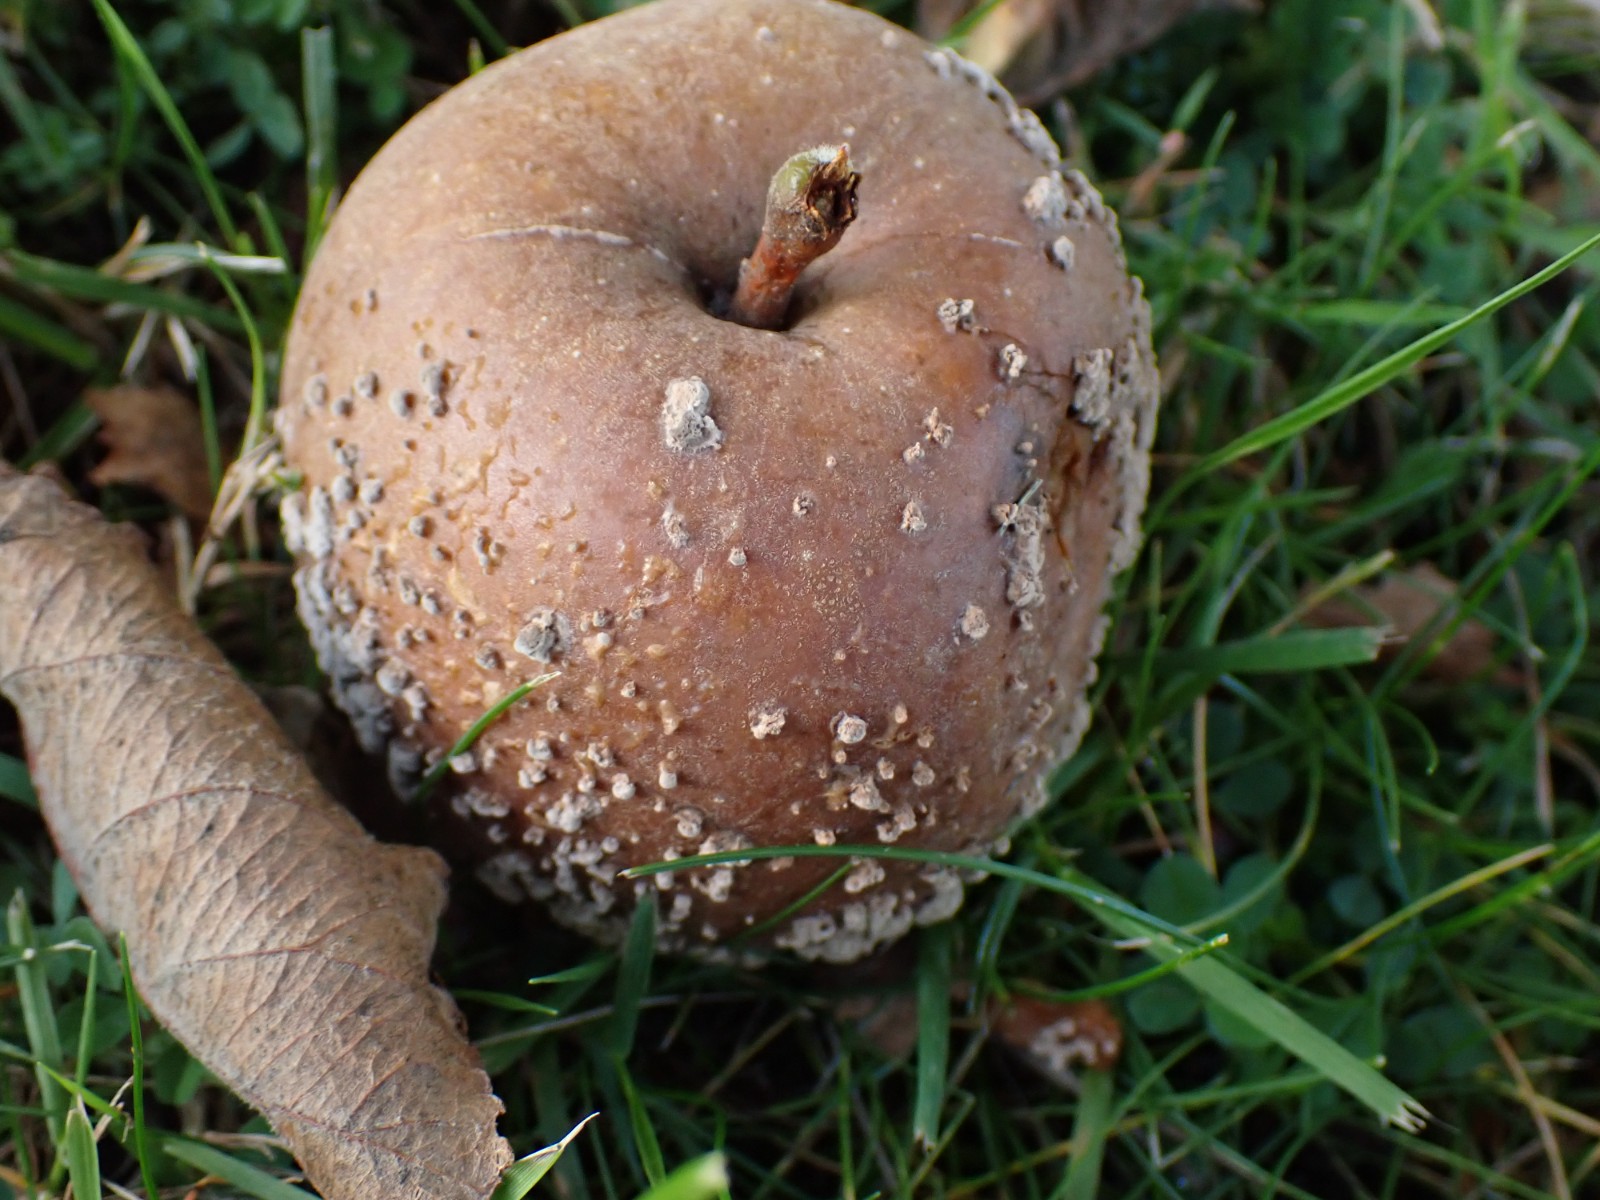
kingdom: Fungi
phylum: Ascomycota
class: Leotiomycetes
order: Helotiales
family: Sclerotiniaceae
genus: Monilinia
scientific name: Monilinia fructigena
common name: æble-knoldskive
